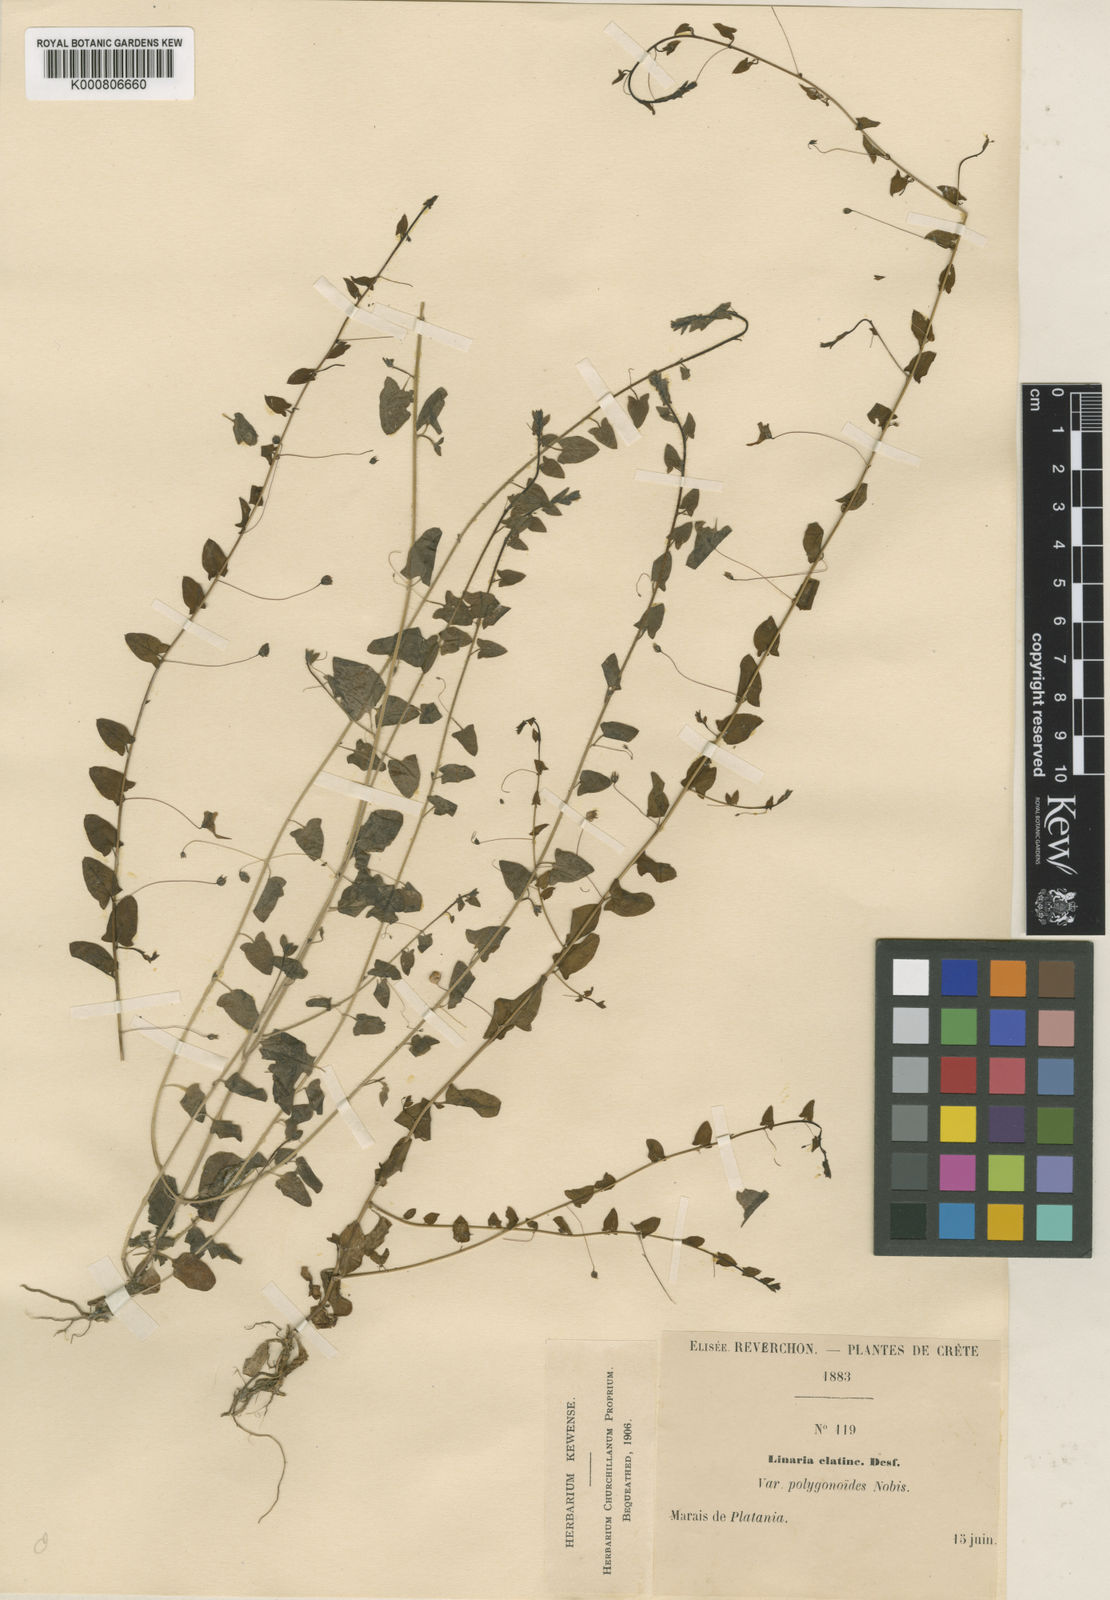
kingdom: Plantae
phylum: Tracheophyta
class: Magnoliopsida
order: Lamiales
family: Plantaginaceae
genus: Chaenorhinum
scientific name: Chaenorhinum
